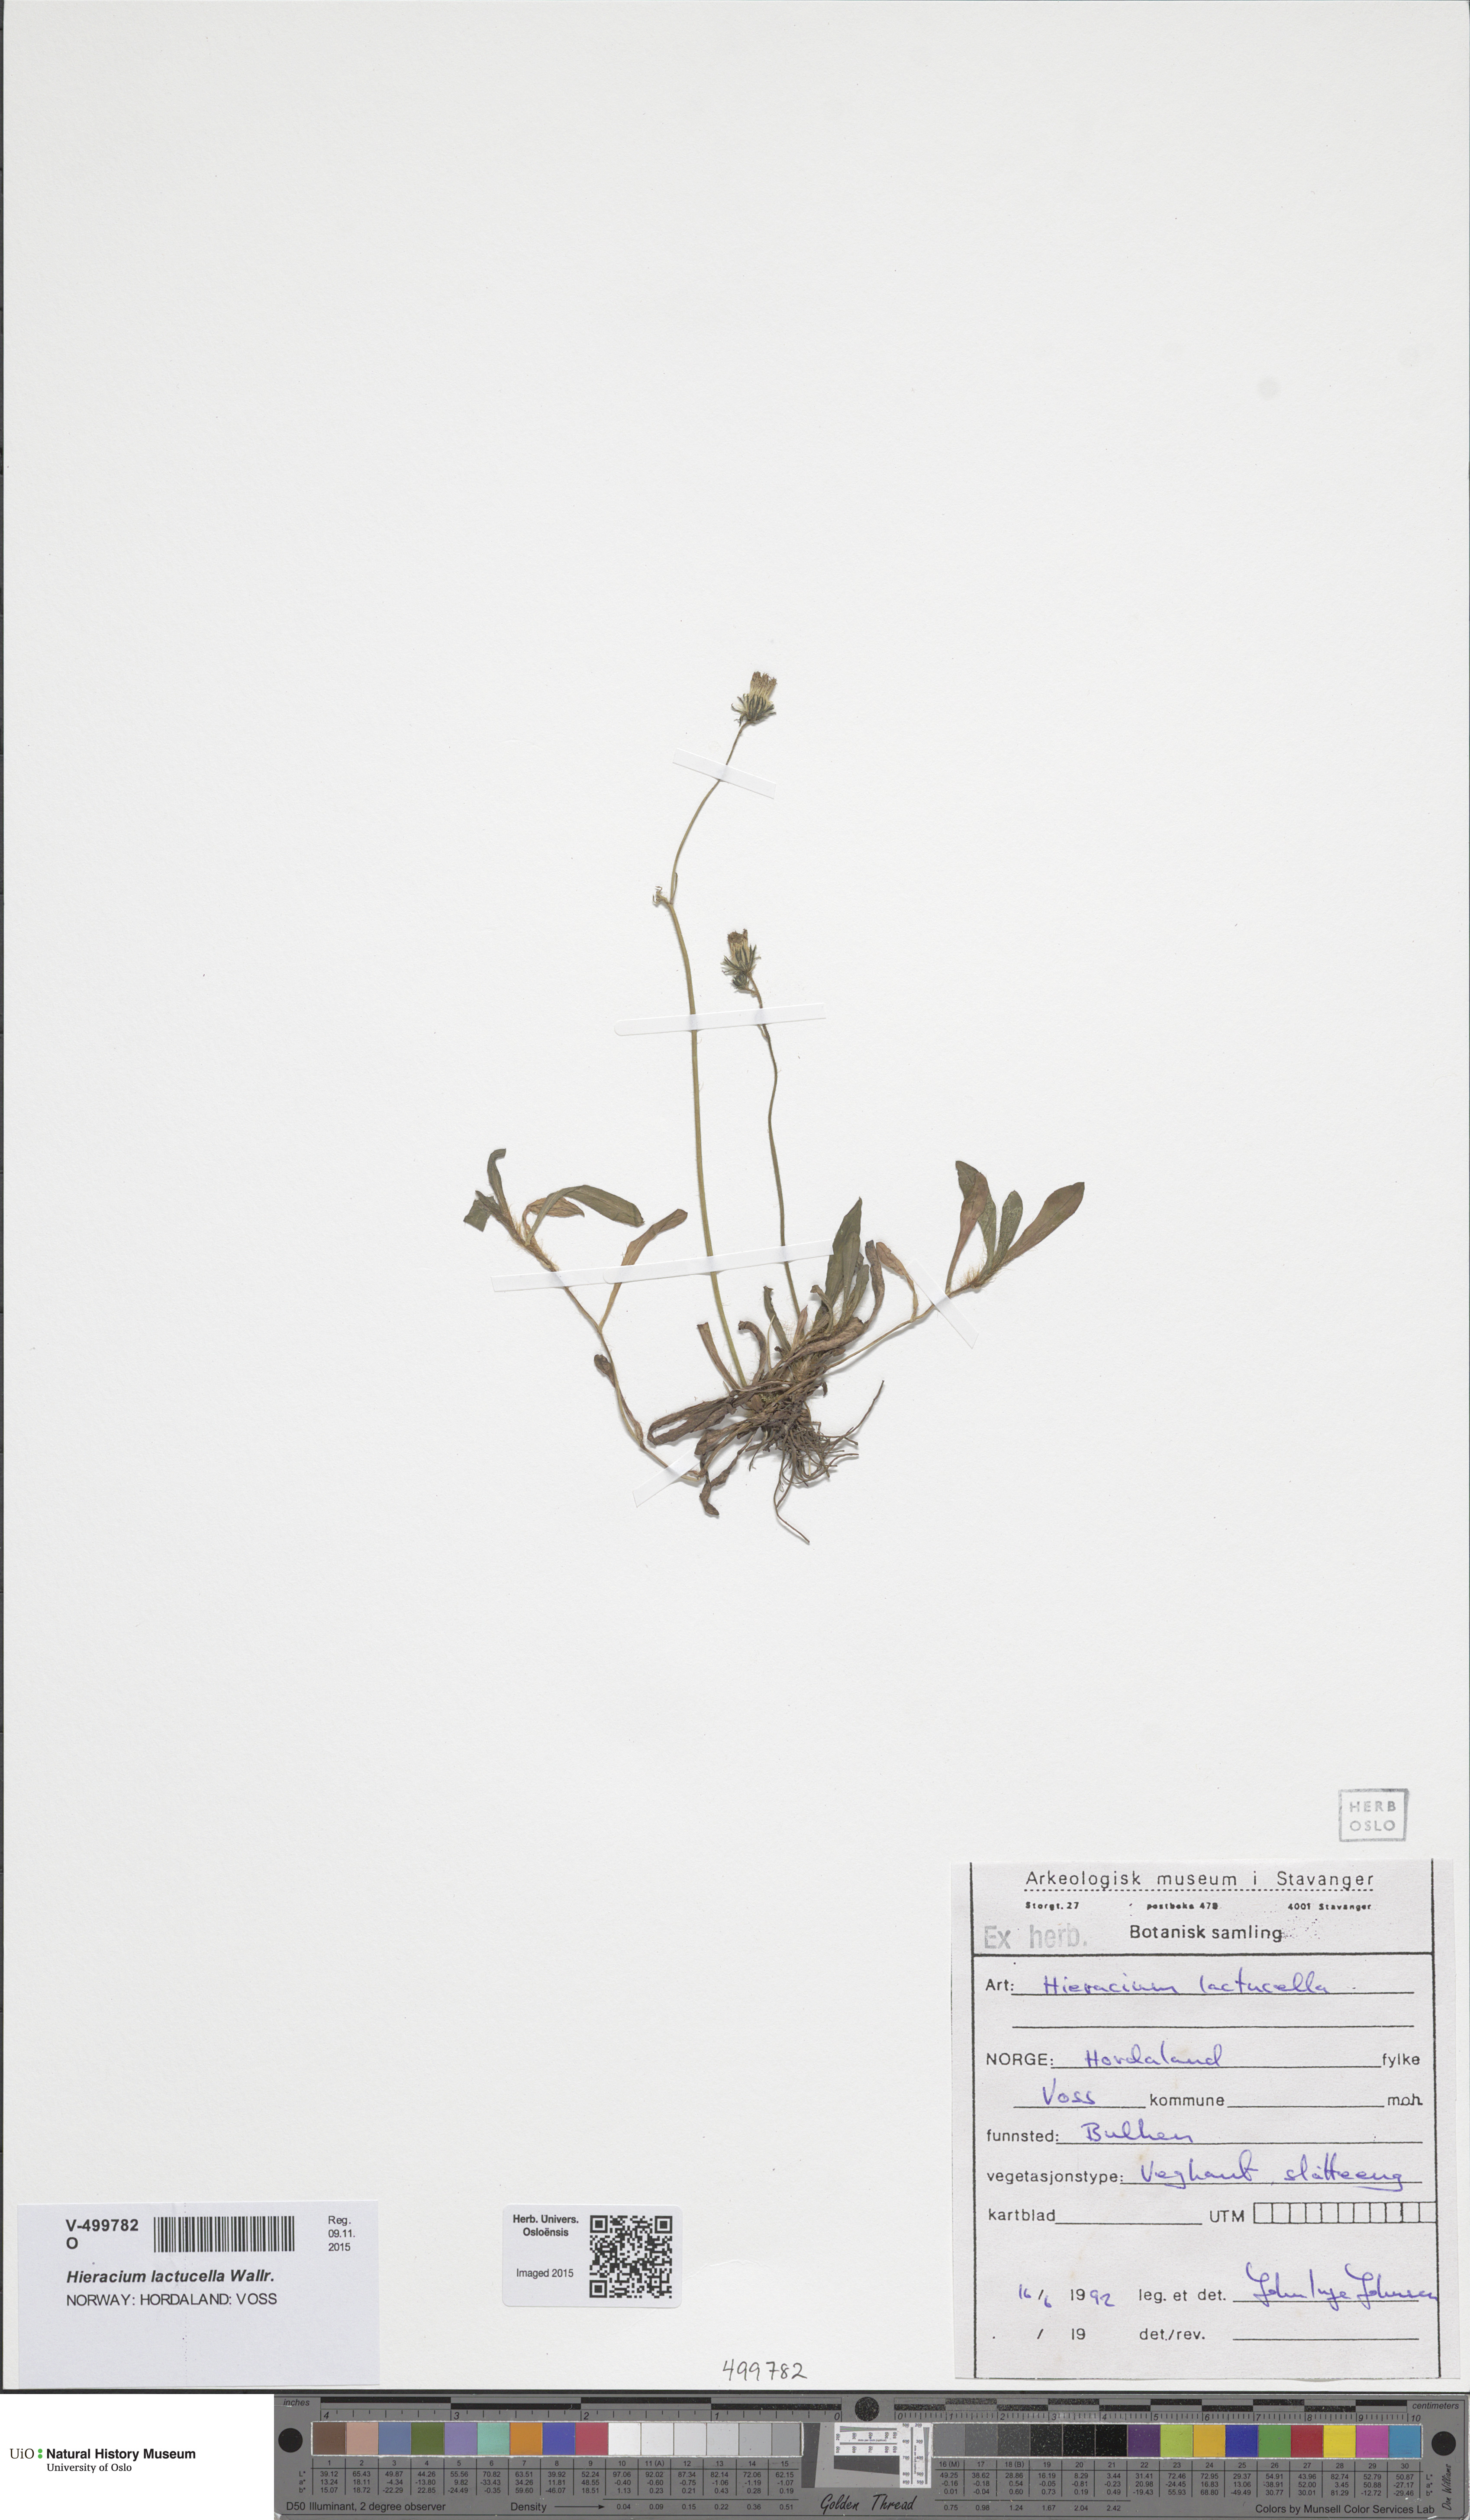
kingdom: Plantae
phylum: Tracheophyta
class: Magnoliopsida
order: Asterales
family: Asteraceae
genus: Pilosella
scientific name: Pilosella lactucella
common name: Glaucous fox-and-cubs
